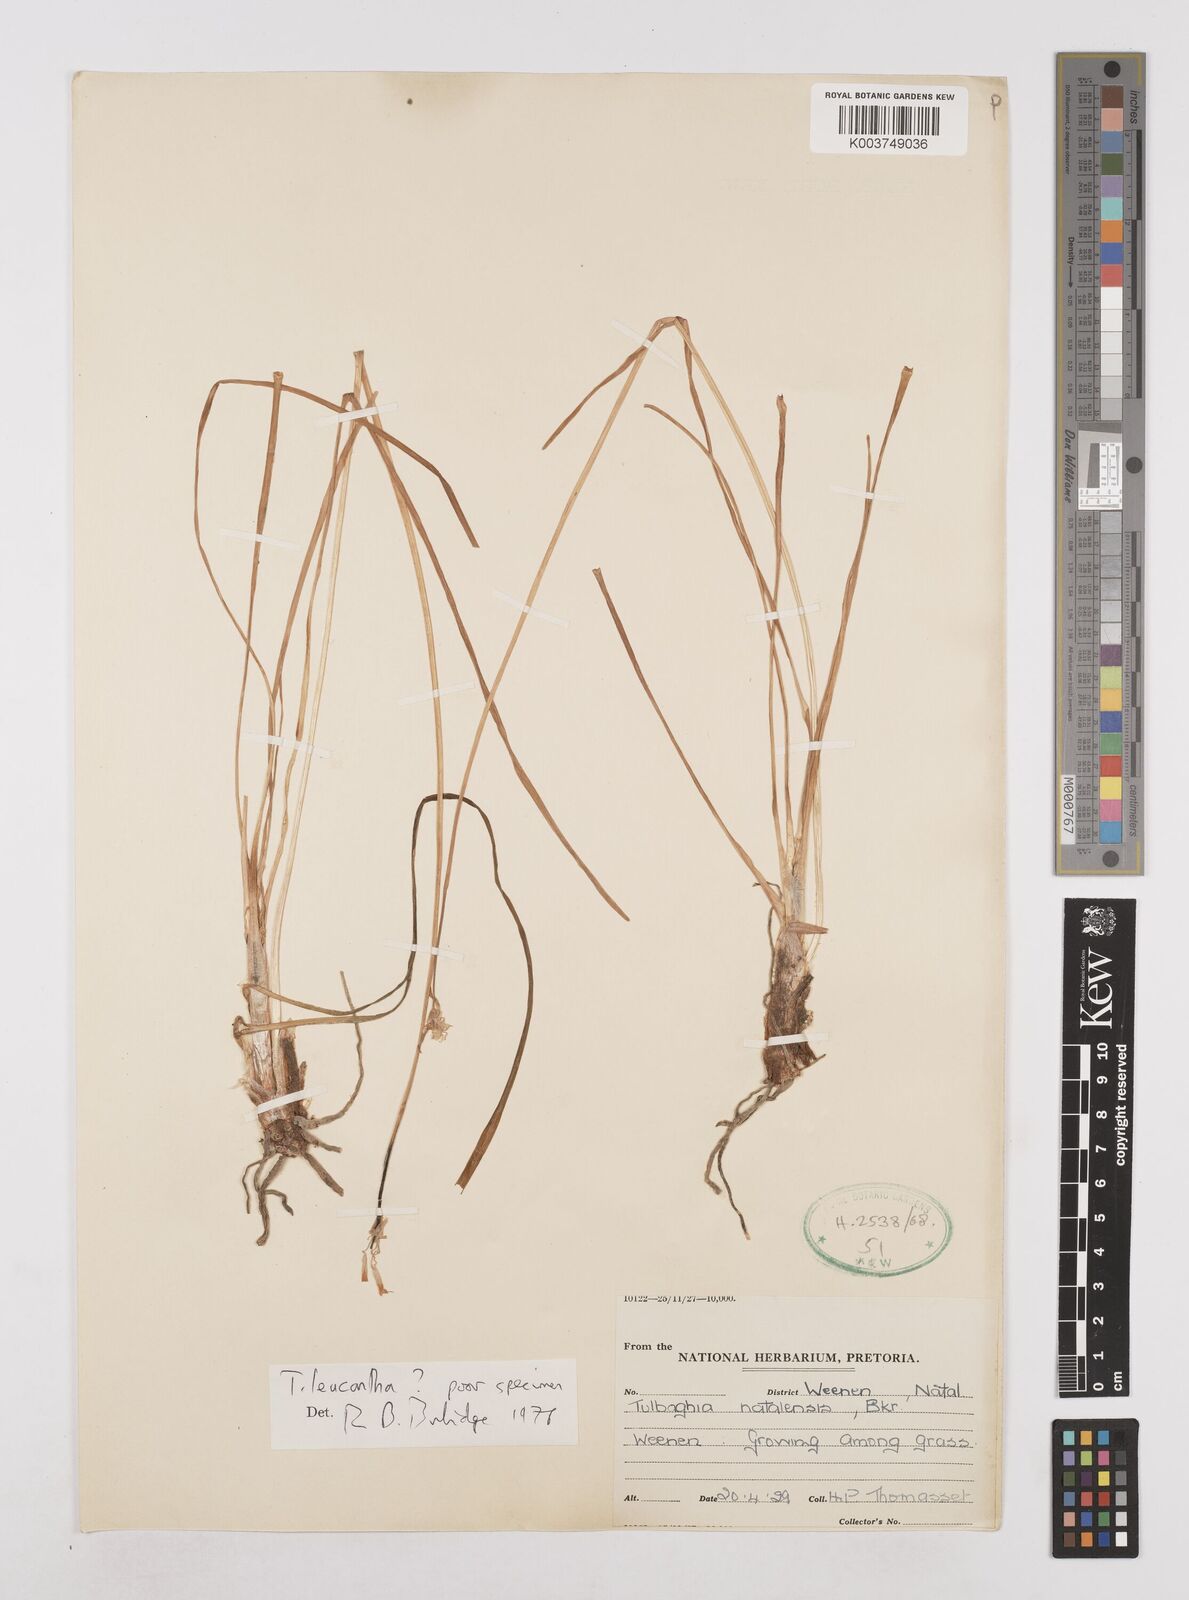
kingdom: Plantae
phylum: Tracheophyta
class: Liliopsida
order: Asparagales
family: Amaryllidaceae
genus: Tulbaghia
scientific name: Tulbaghia leucantha
